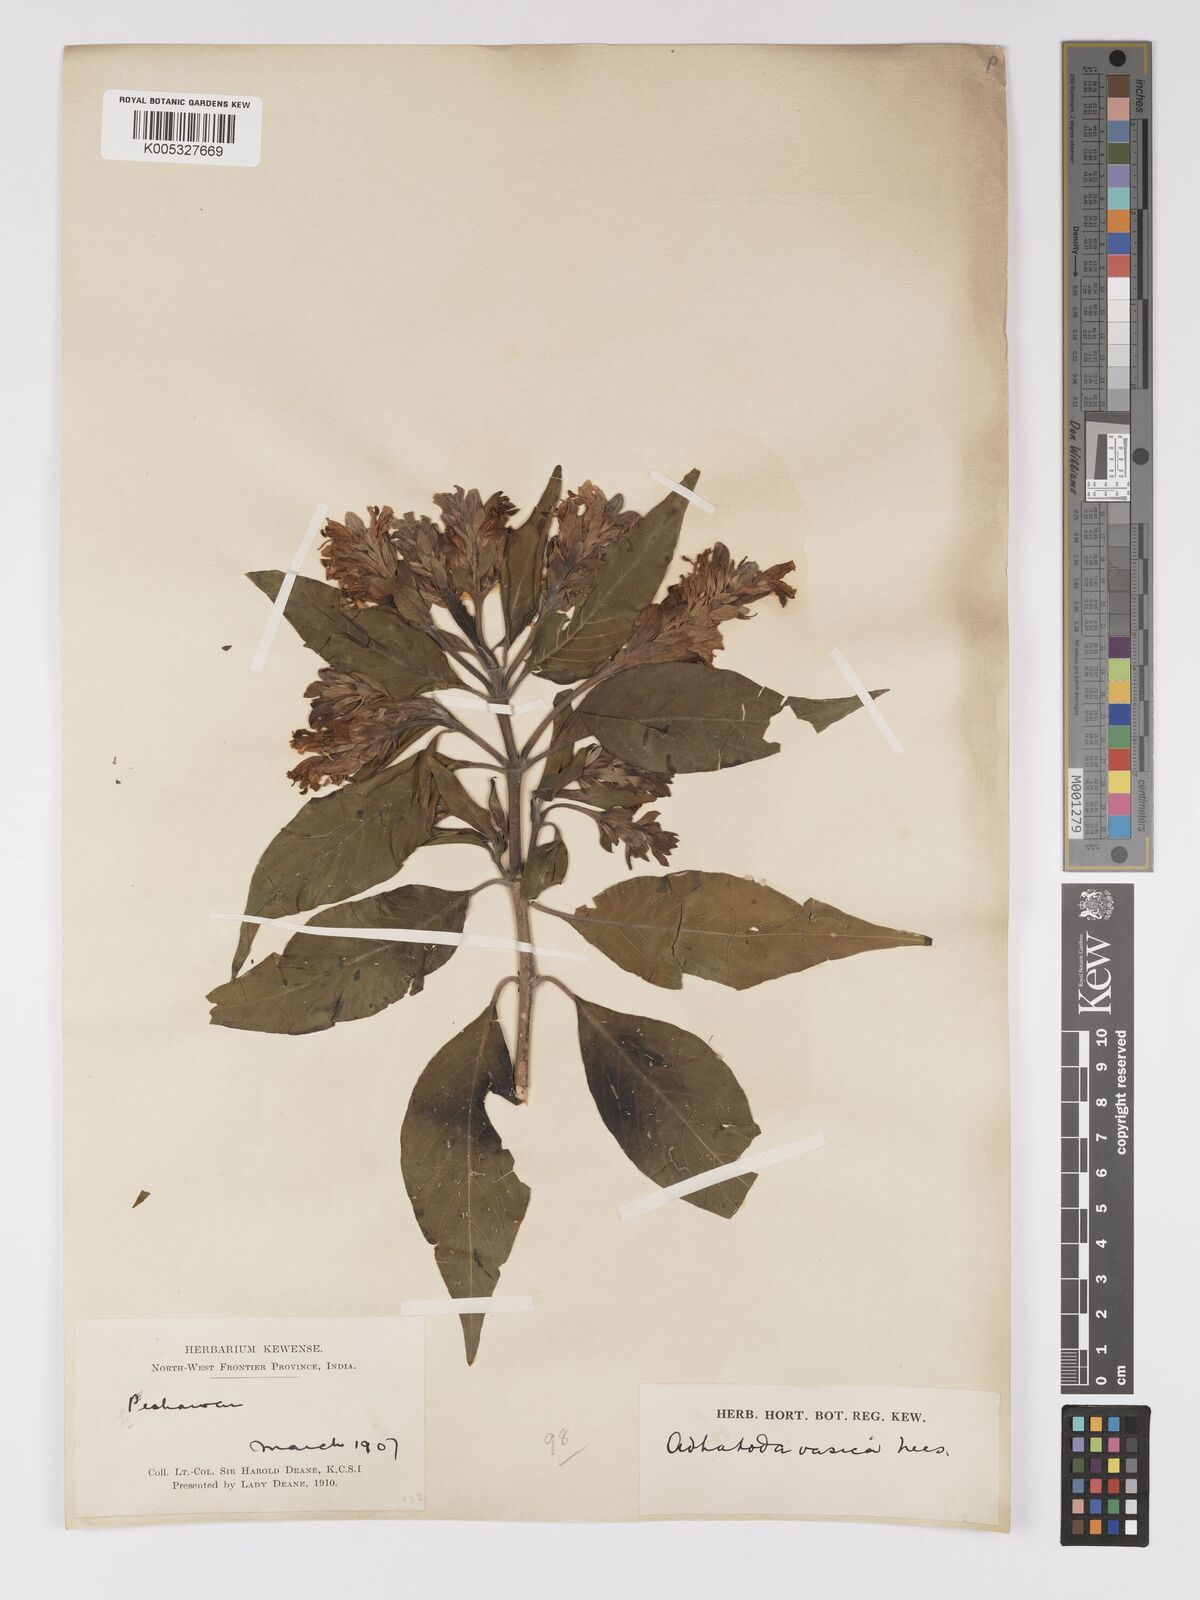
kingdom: Plantae
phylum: Tracheophyta
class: Magnoliopsida
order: Lamiales
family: Acanthaceae
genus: Ecbolium
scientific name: Ecbolium ligustrinum
